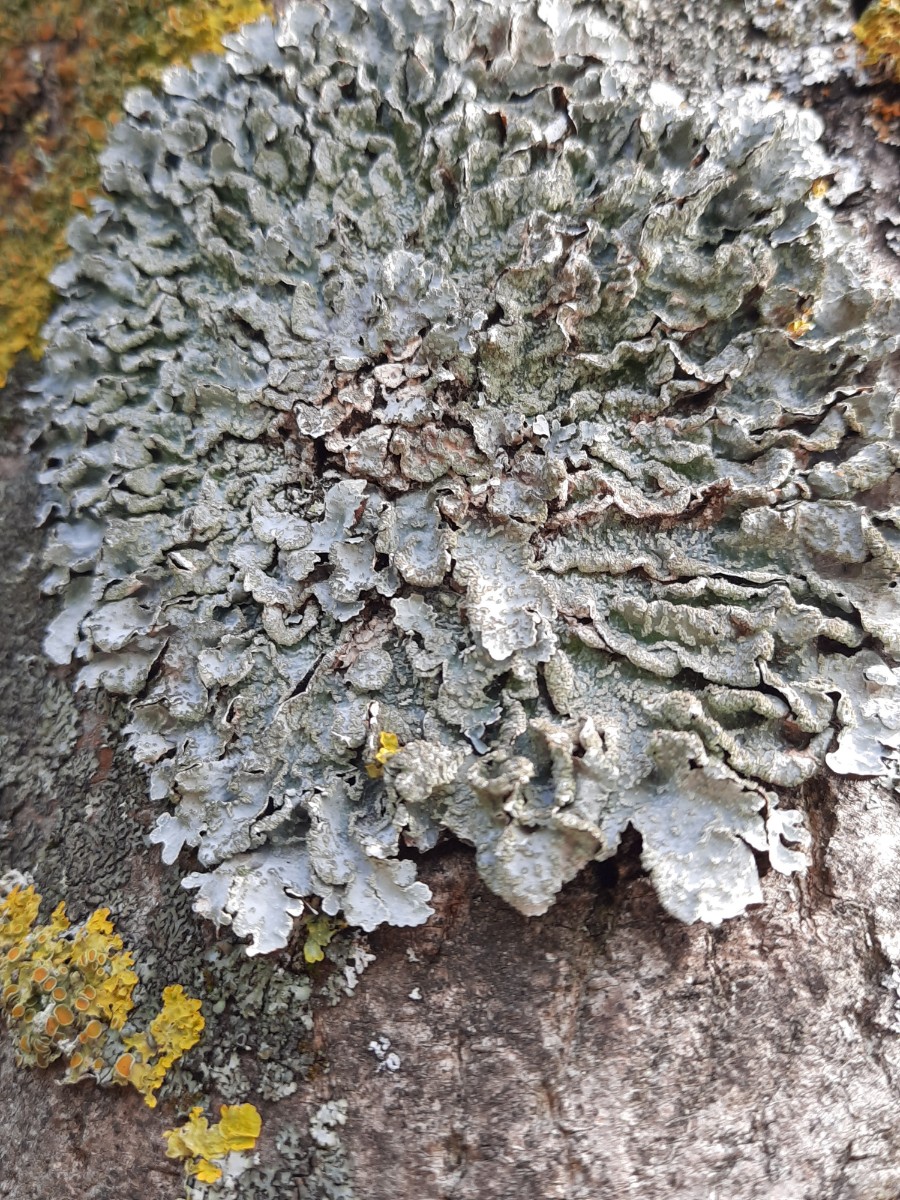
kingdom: Fungi
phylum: Ascomycota
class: Lecanoromycetes
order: Lecanorales
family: Parmeliaceae
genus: Parmelia
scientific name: Parmelia sulcata
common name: rynket skållav
